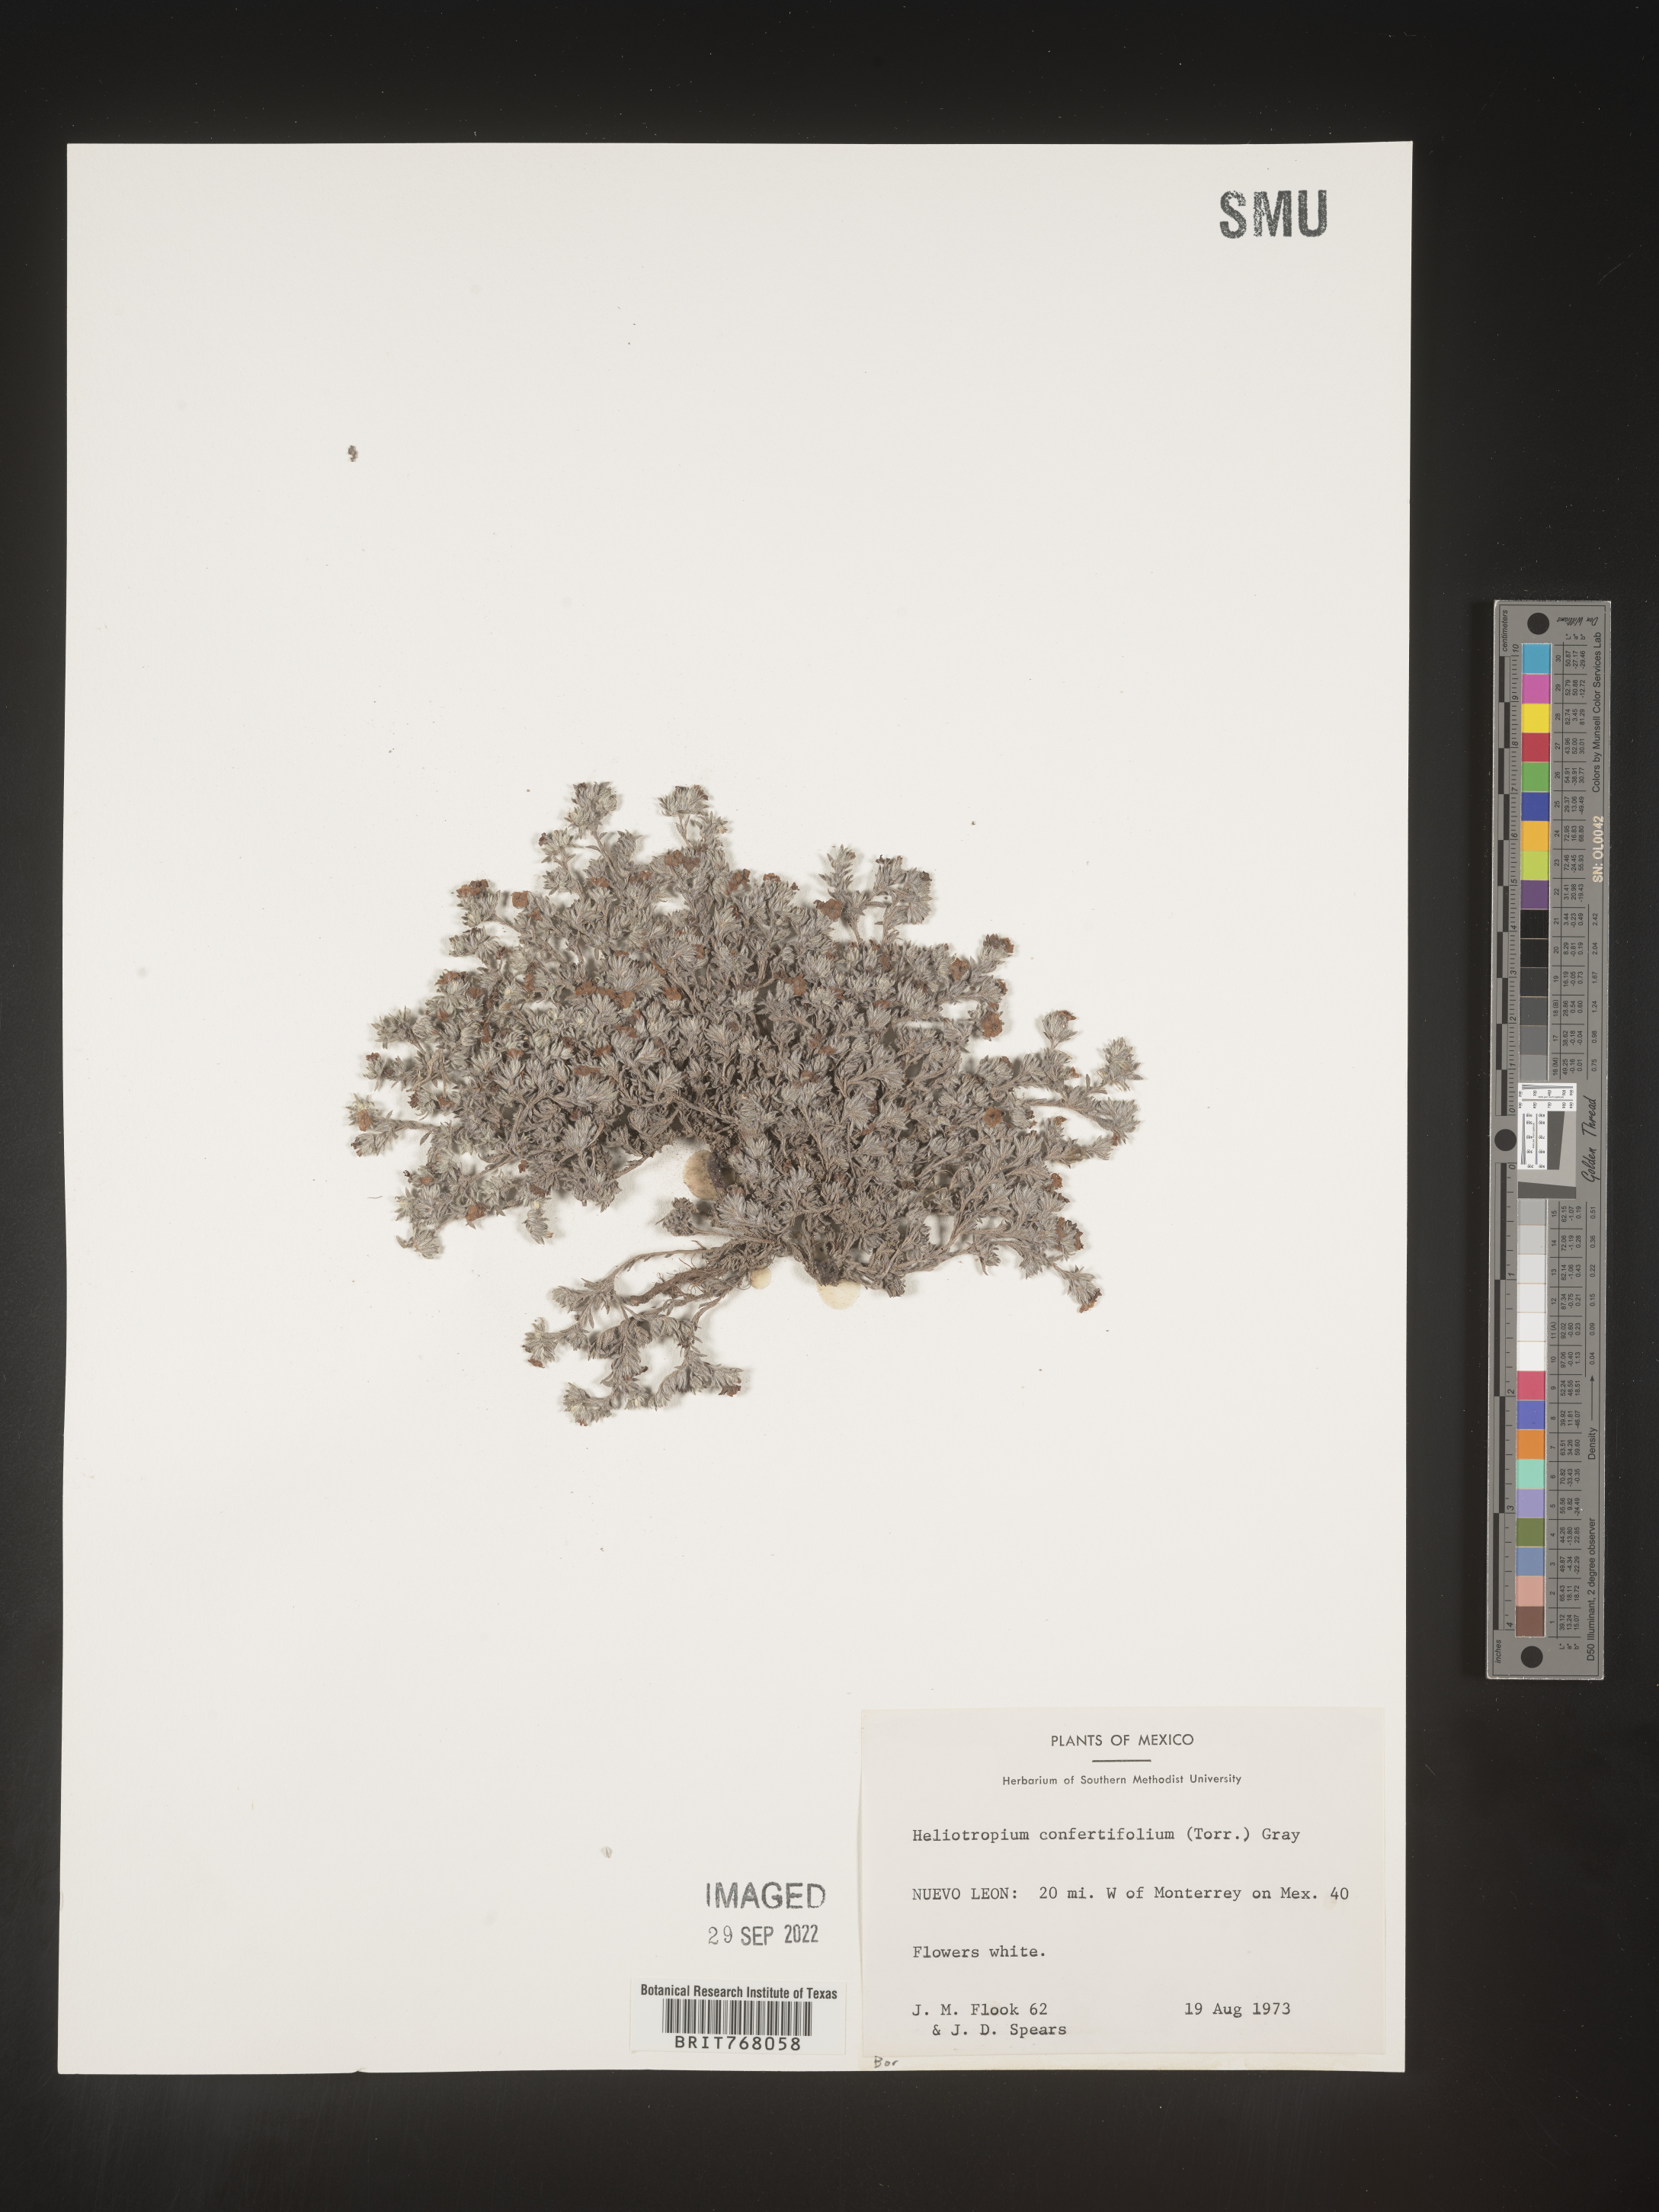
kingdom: Plantae
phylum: Tracheophyta
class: Magnoliopsida
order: Boraginales
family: Heliotropiaceae
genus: Heliotropium
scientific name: Heliotropium
